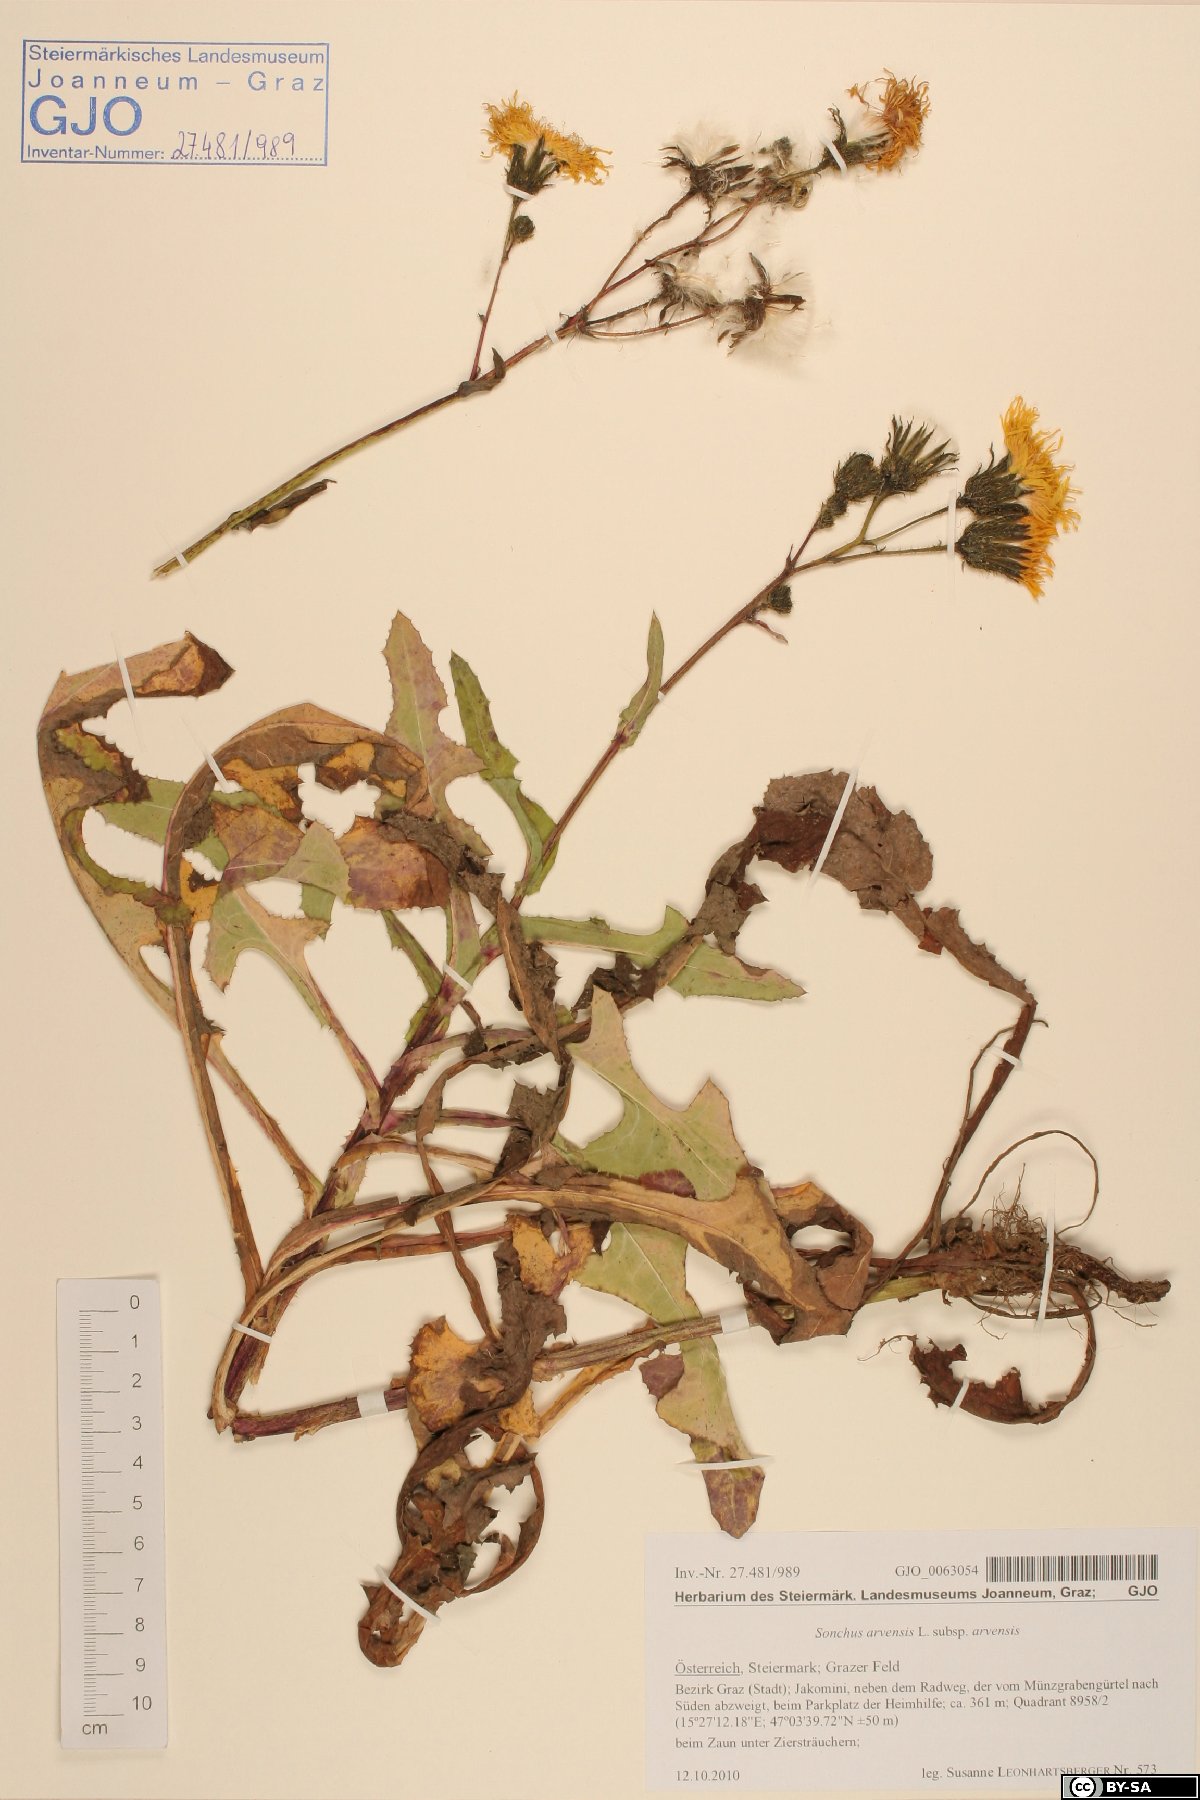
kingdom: Plantae
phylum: Tracheophyta
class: Magnoliopsida
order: Asterales
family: Asteraceae
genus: Sonchus
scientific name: Sonchus arvensis
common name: Perennial sow-thistle
